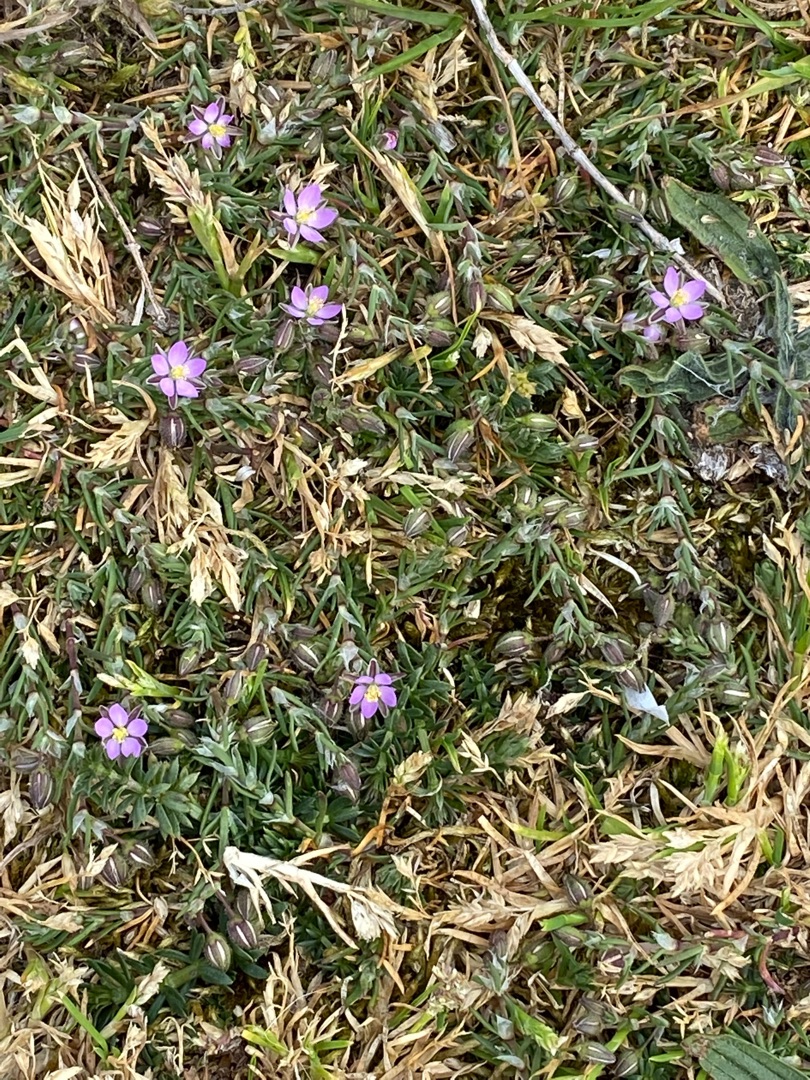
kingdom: Plantae
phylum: Tracheophyta
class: Magnoliopsida
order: Caryophyllales
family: Caryophyllaceae
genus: Spergularia
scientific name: Spergularia rubra
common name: Mark-hindeknæ
